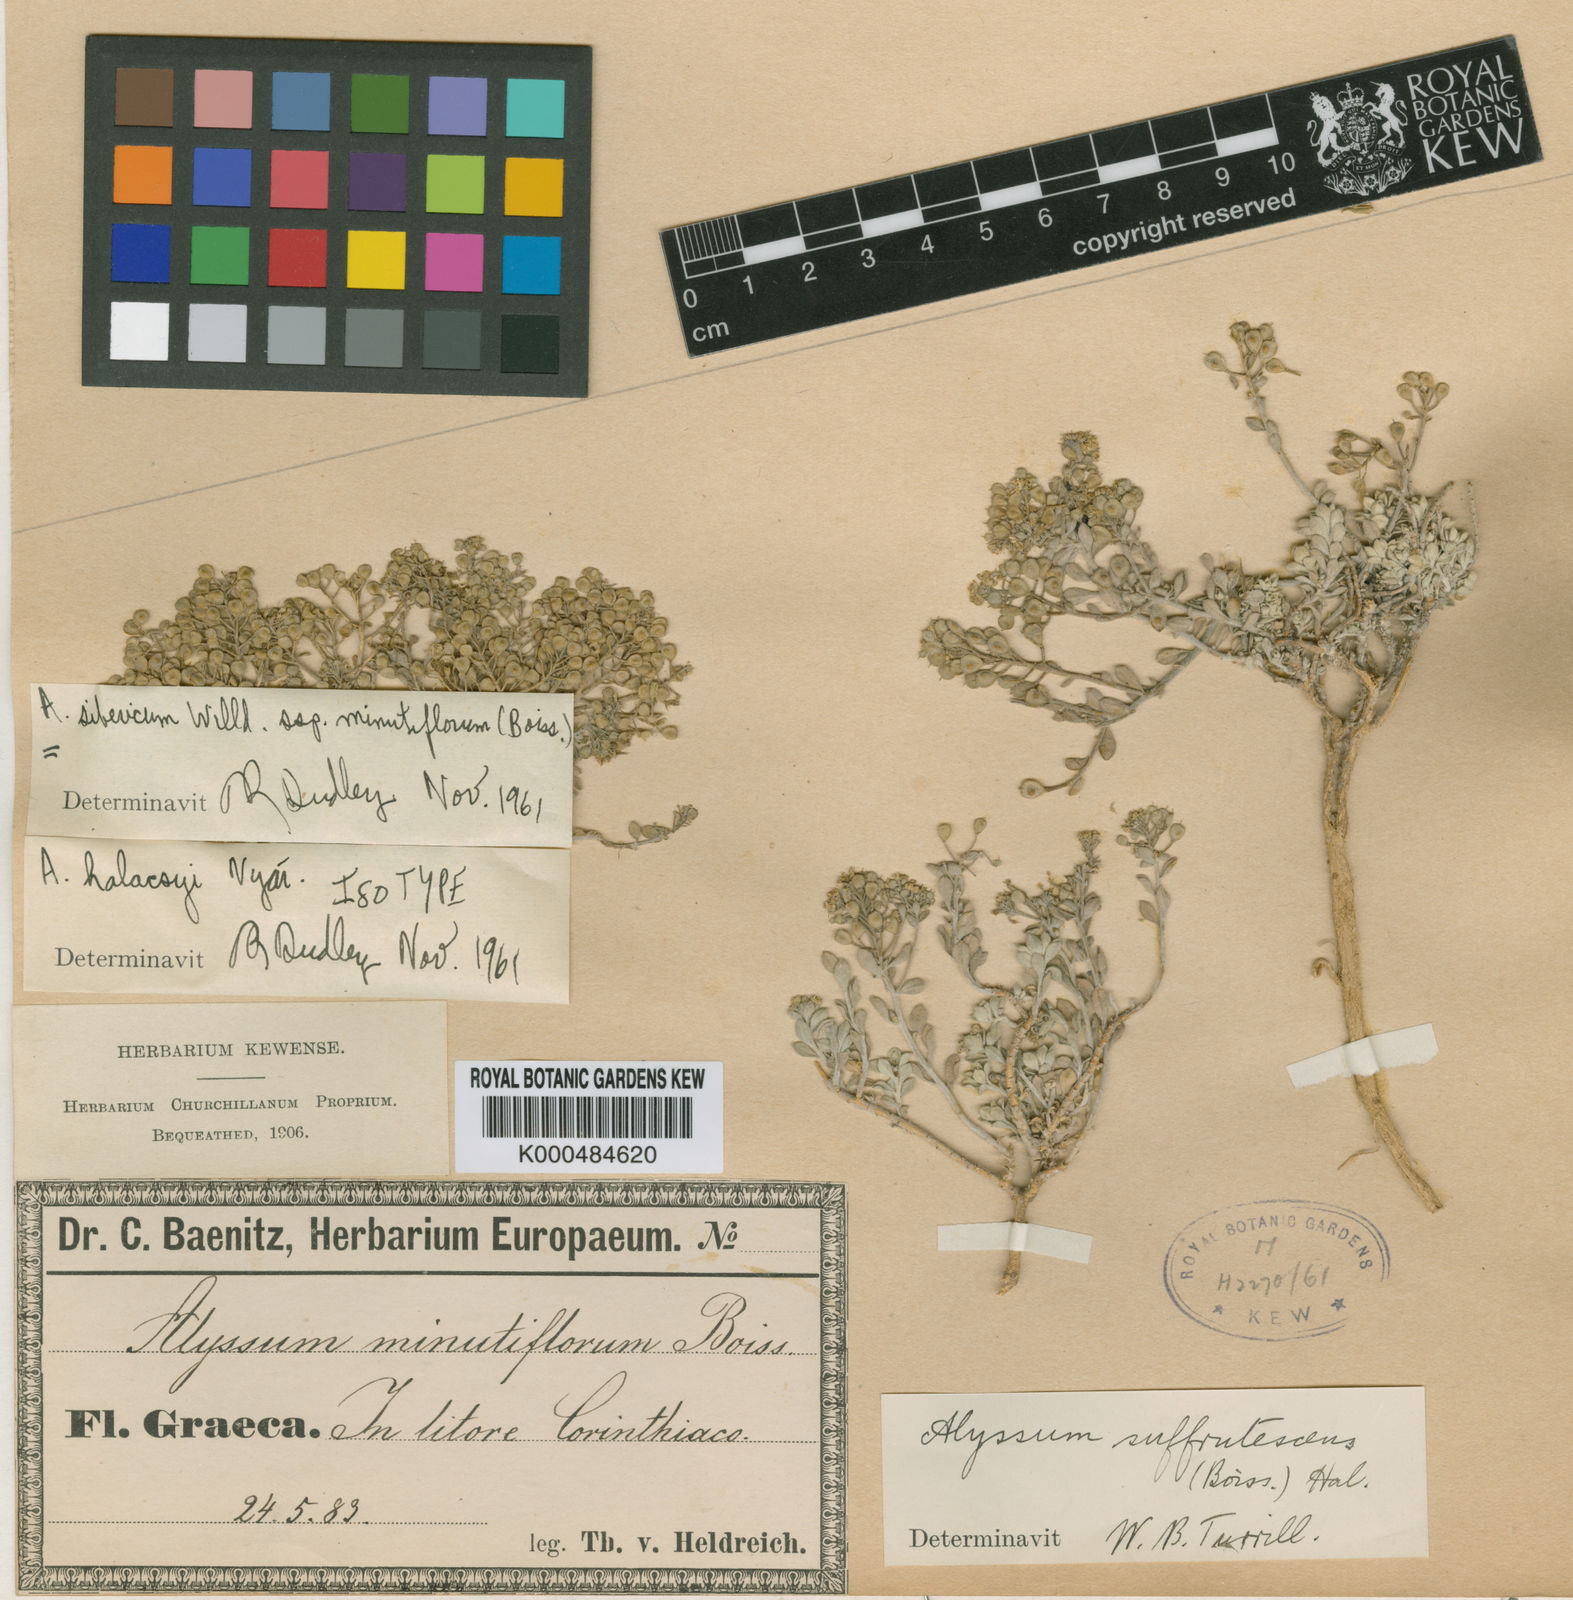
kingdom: Plantae
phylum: Tracheophyta
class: Magnoliopsida
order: Brassicales
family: Brassicaceae
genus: Odontarrhena
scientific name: Odontarrhena sibirica
